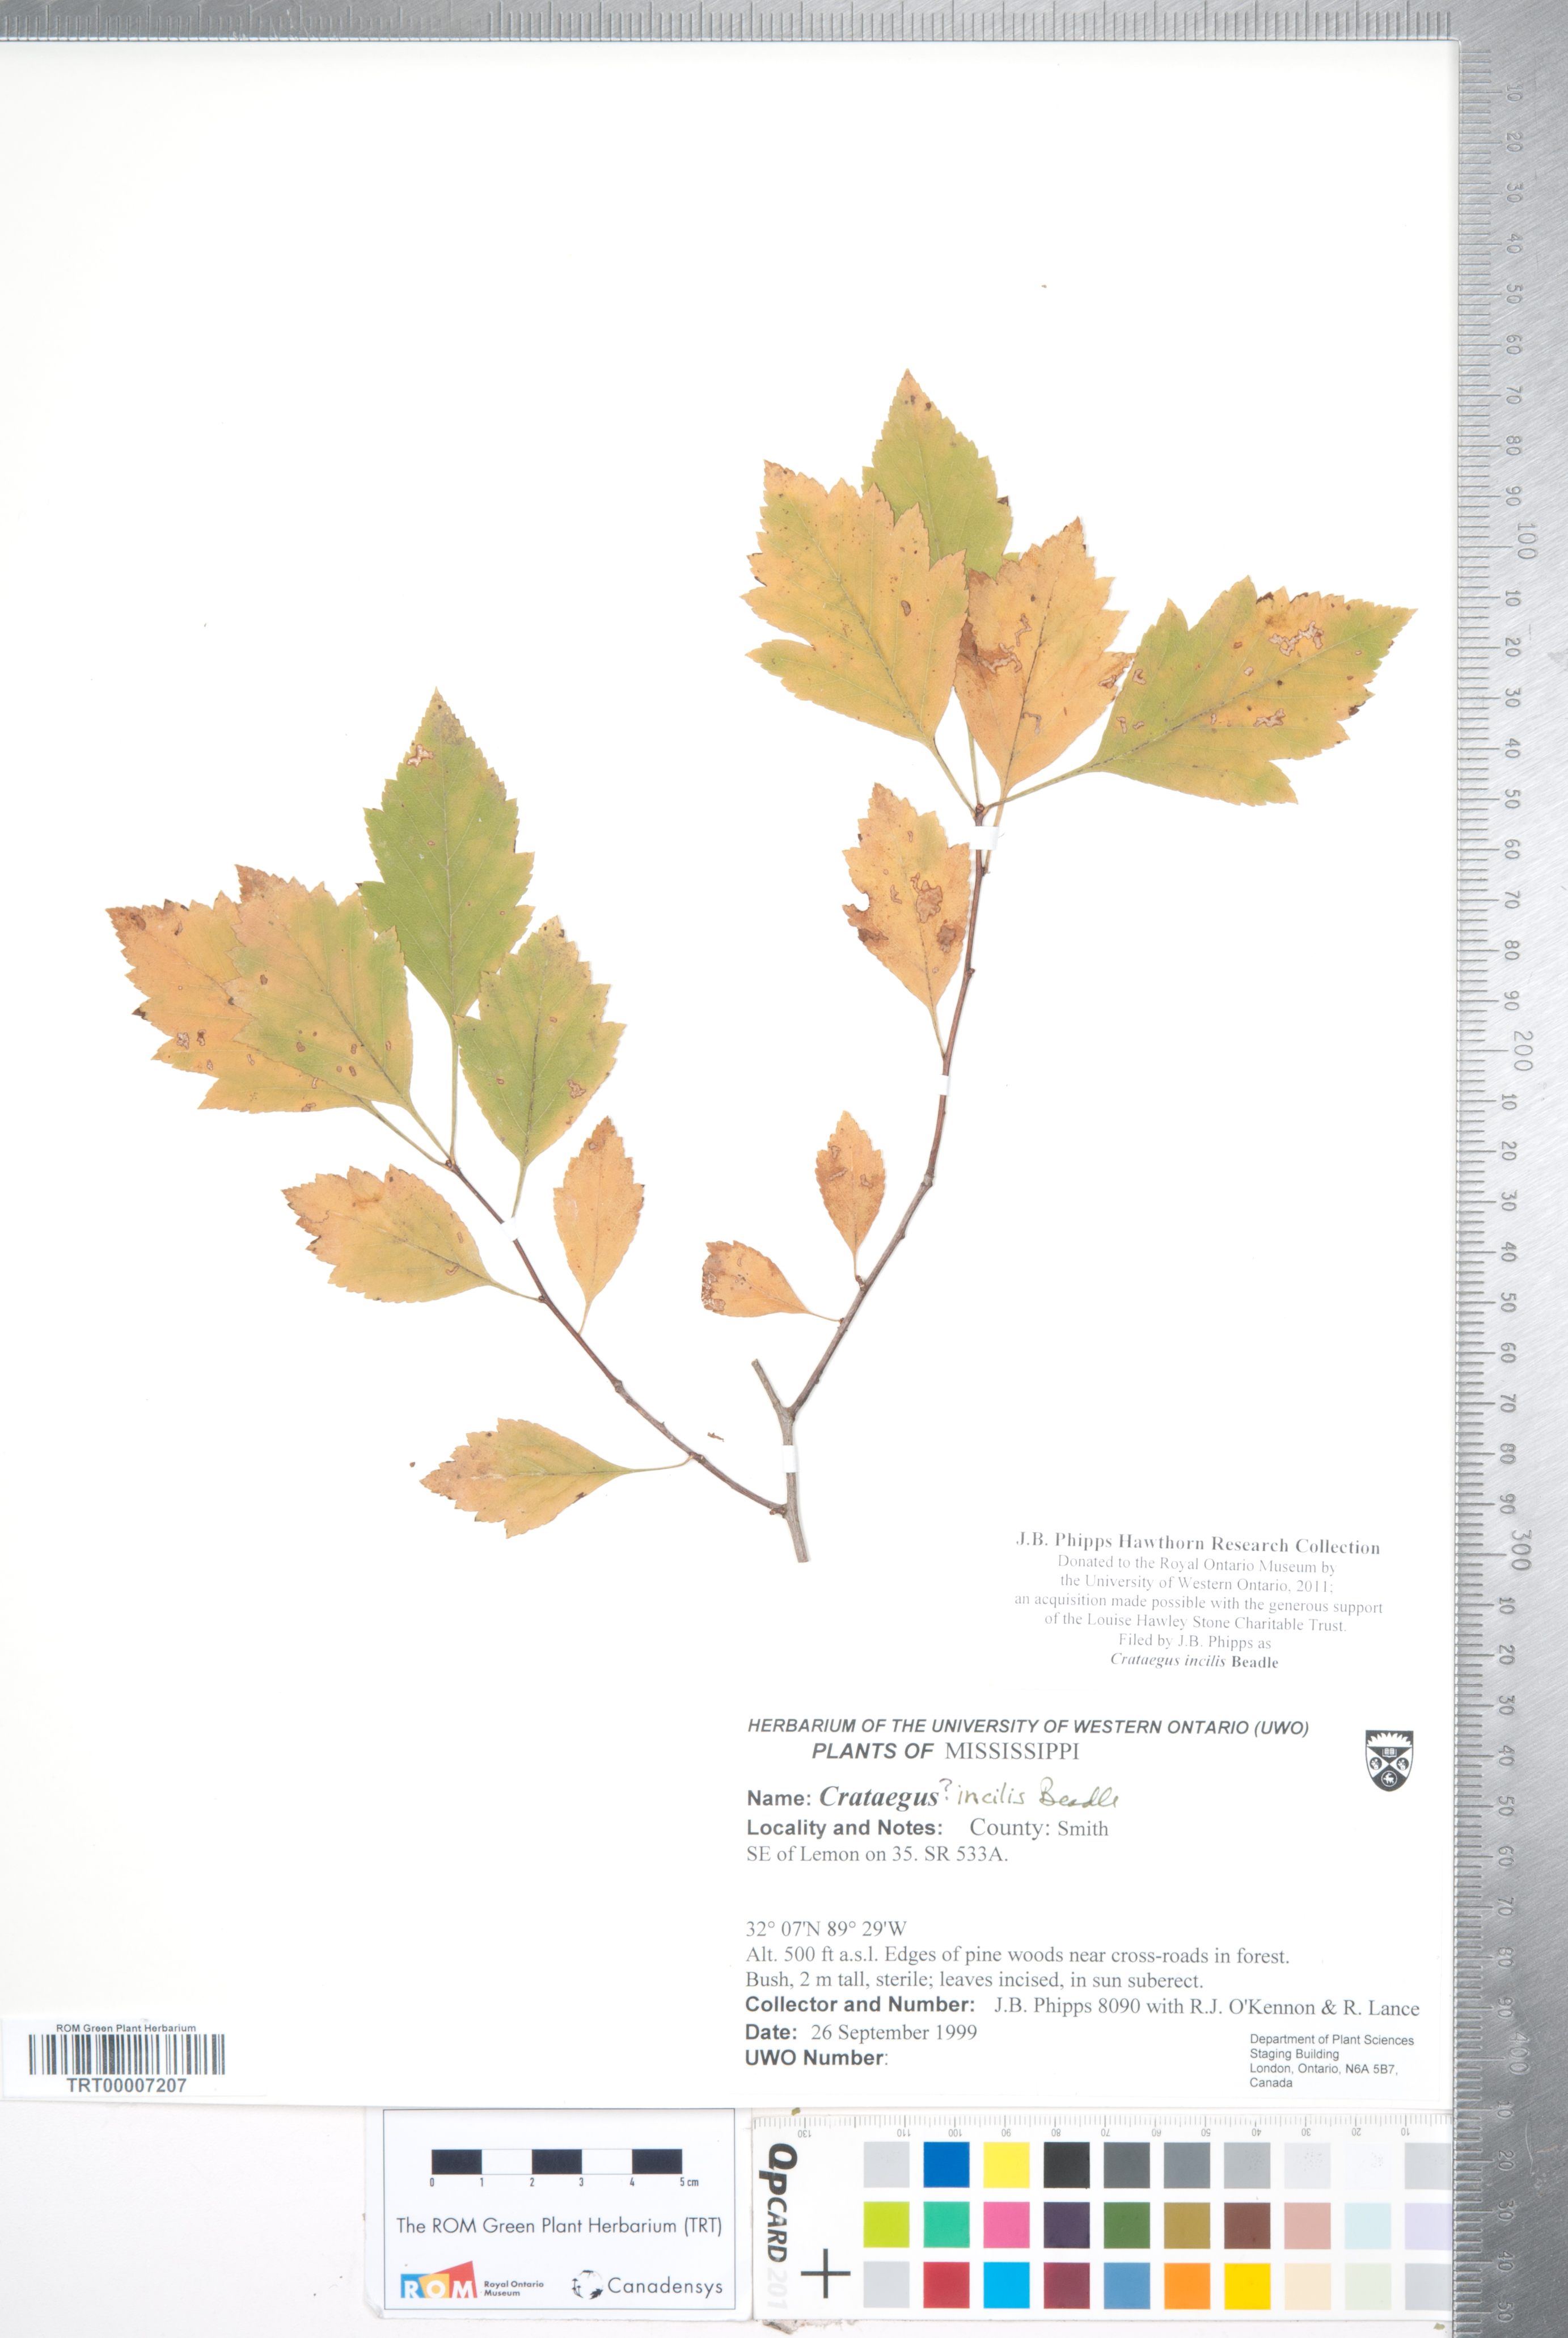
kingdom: Plantae
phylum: Tracheophyta
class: Magnoliopsida
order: Rosales
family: Rosaceae
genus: Crataegus
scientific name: Crataegus pulcherrima
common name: Beautiful hawthorn
